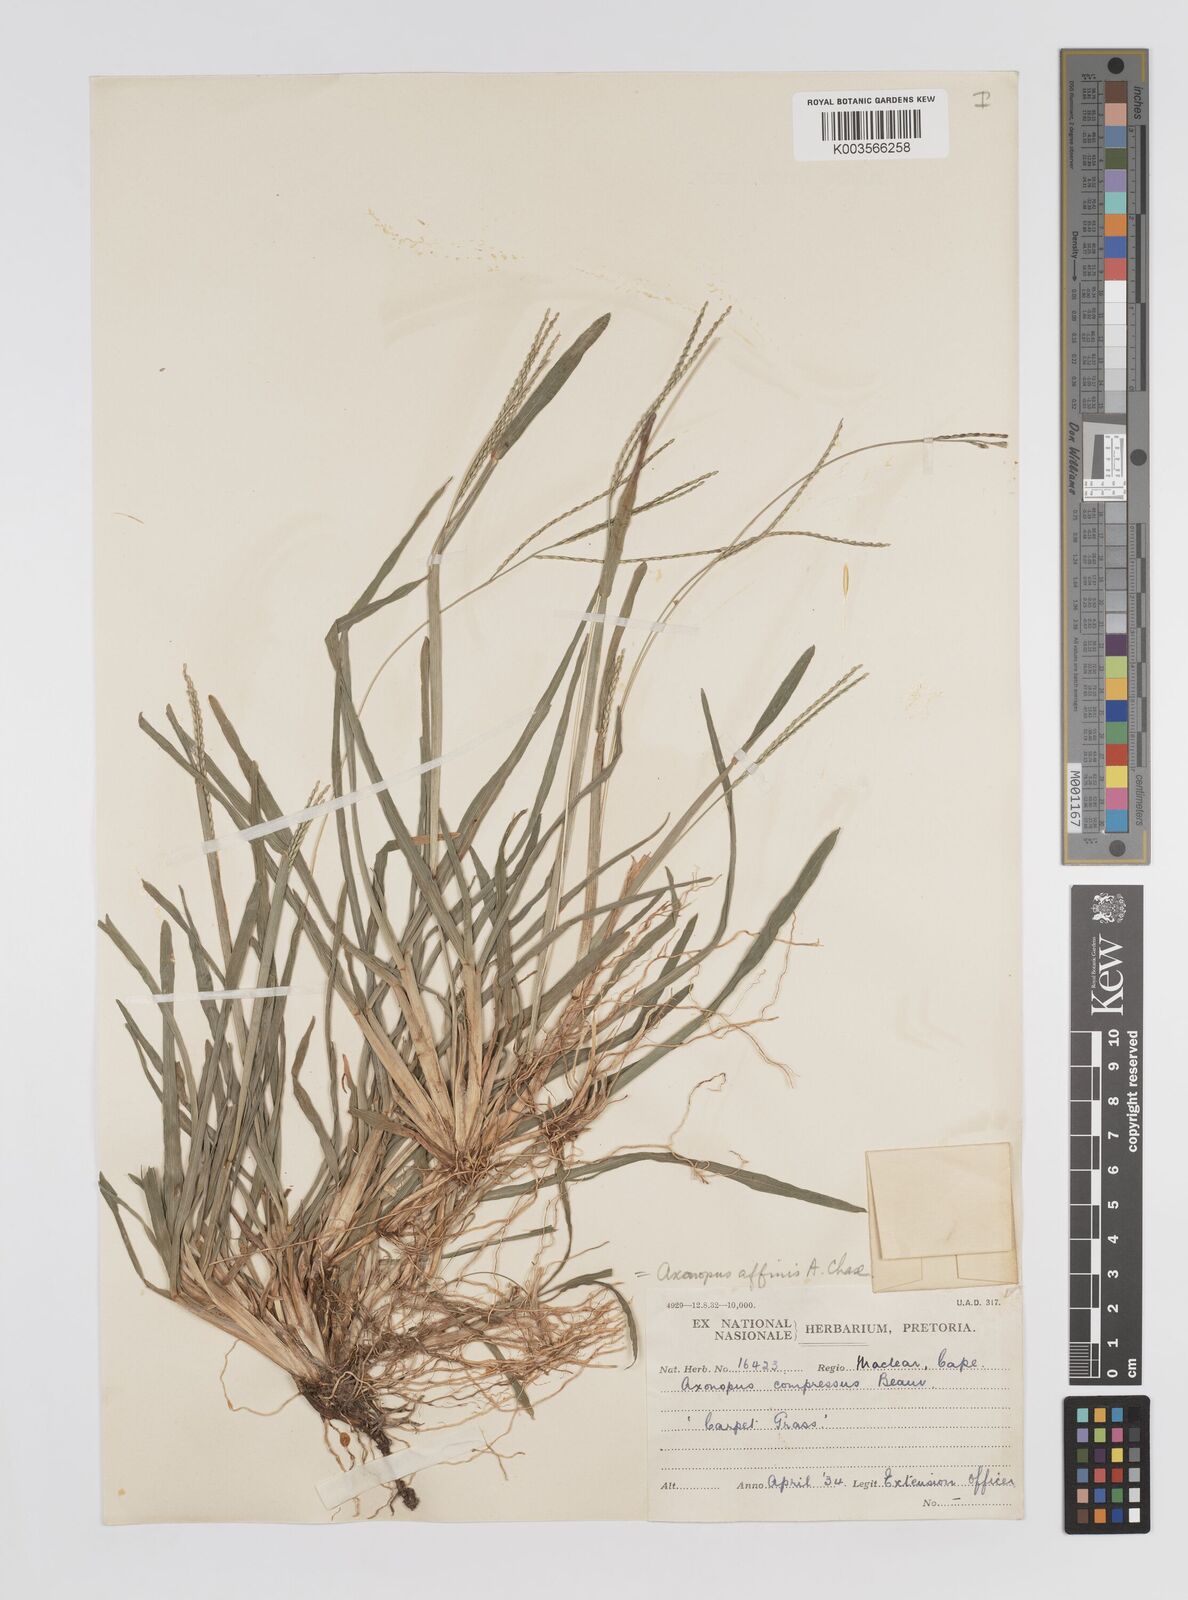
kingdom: Plantae
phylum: Tracheophyta
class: Liliopsida
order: Poales
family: Poaceae
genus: Axonopus
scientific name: Axonopus fissifolius
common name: Common carpetgrass
